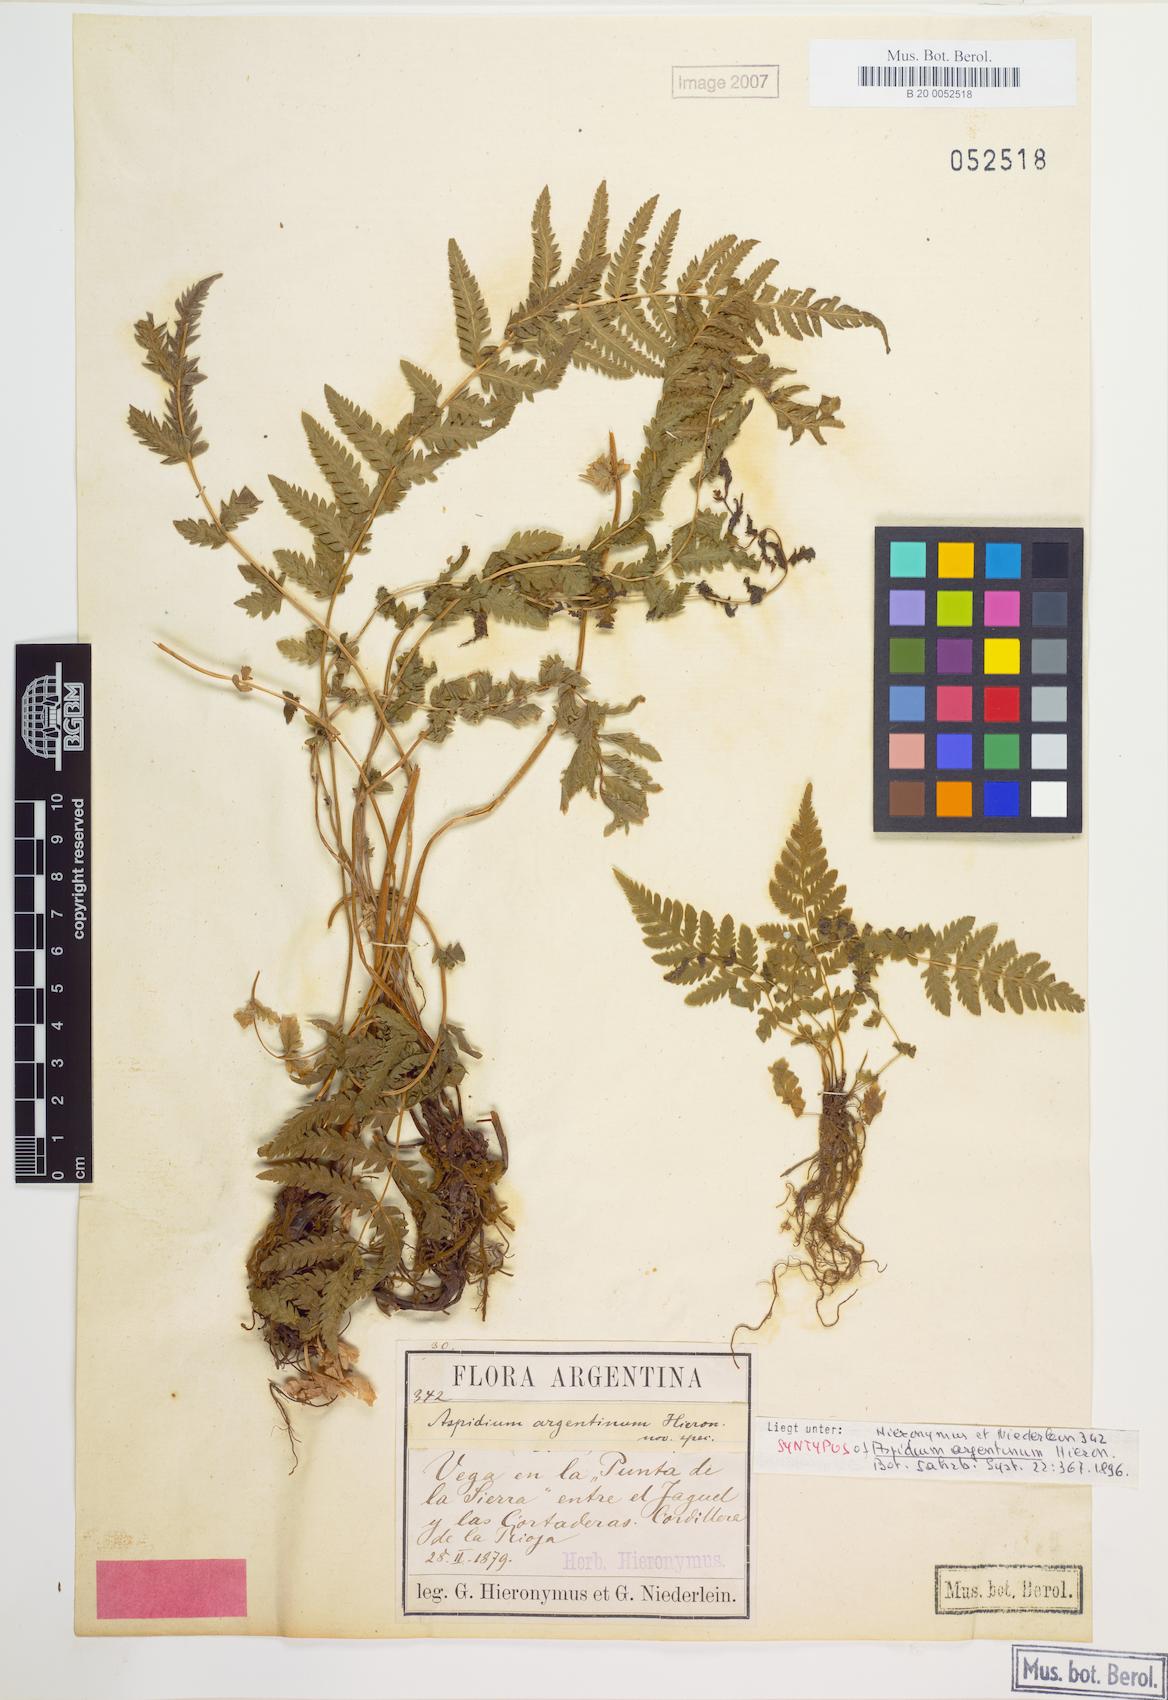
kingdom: Plantae
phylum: Tracheophyta
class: Polypodiopsida
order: Polypodiales
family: Thelypteridaceae
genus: Amauropelta
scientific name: Amauropelta argentina
